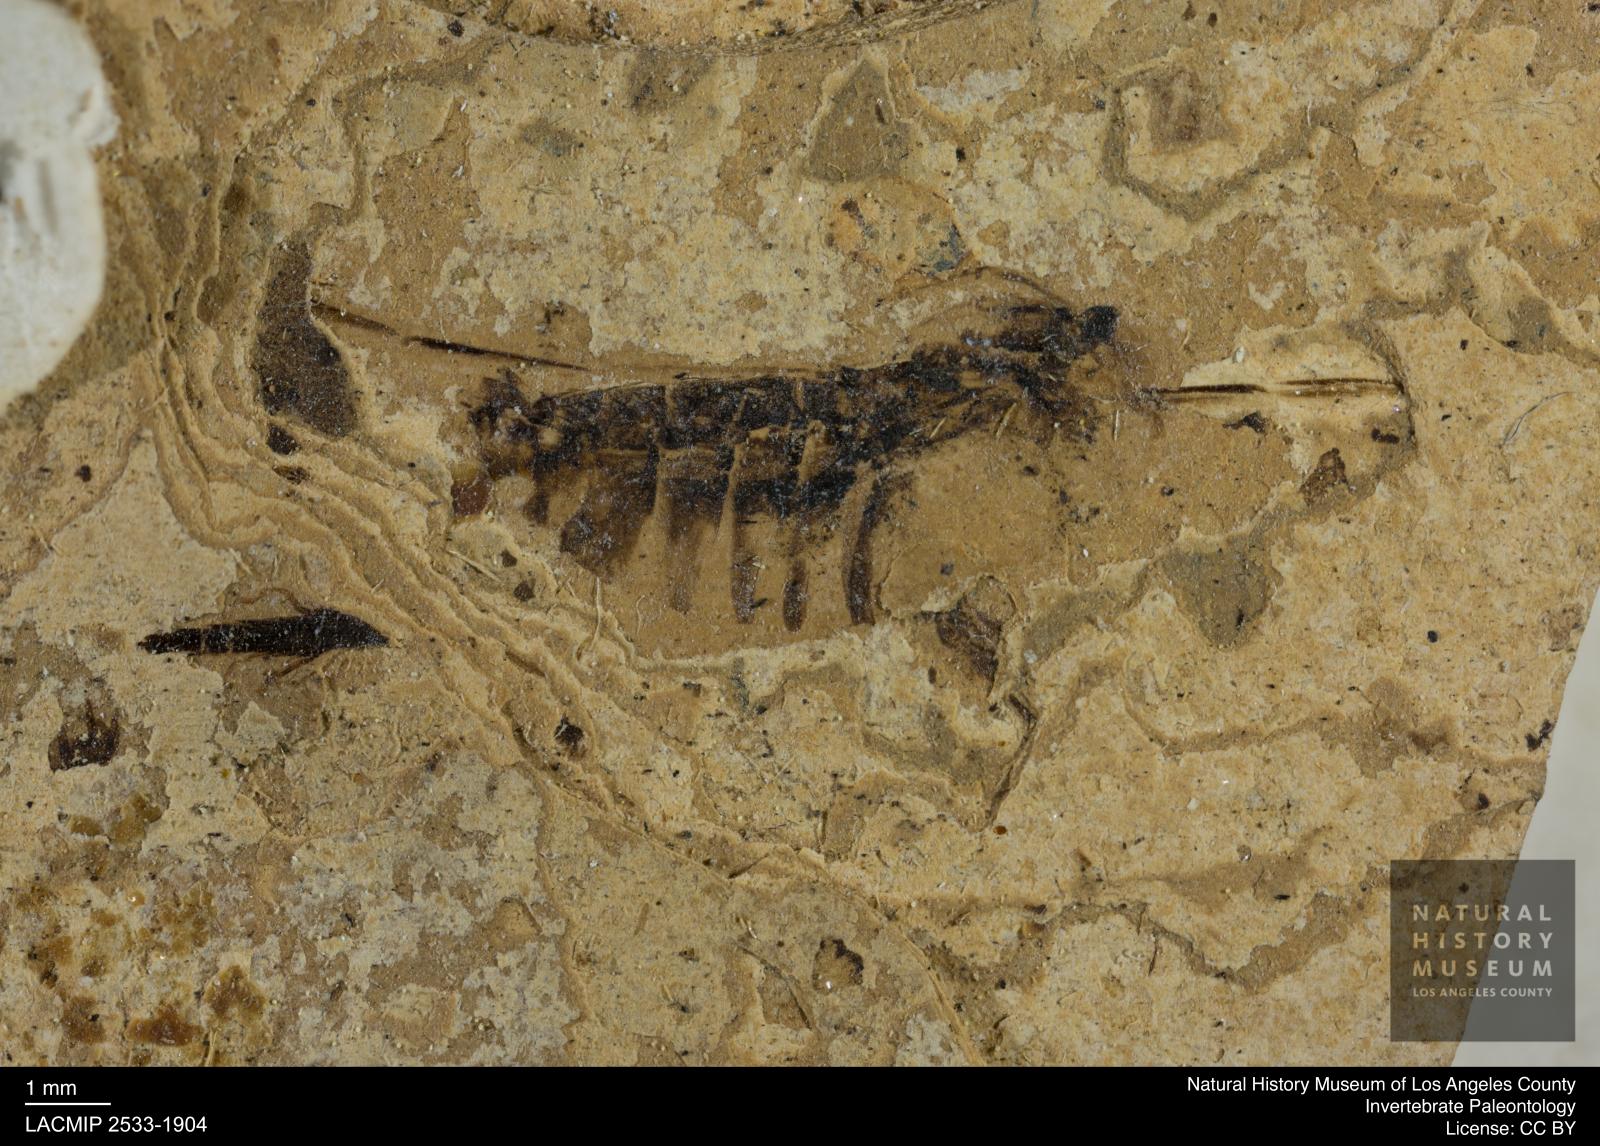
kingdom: Animalia
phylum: Arthropoda
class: Insecta
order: Hemiptera
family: Notonectidae
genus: Anisops
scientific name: Anisops Notonecta deichmuelleri
